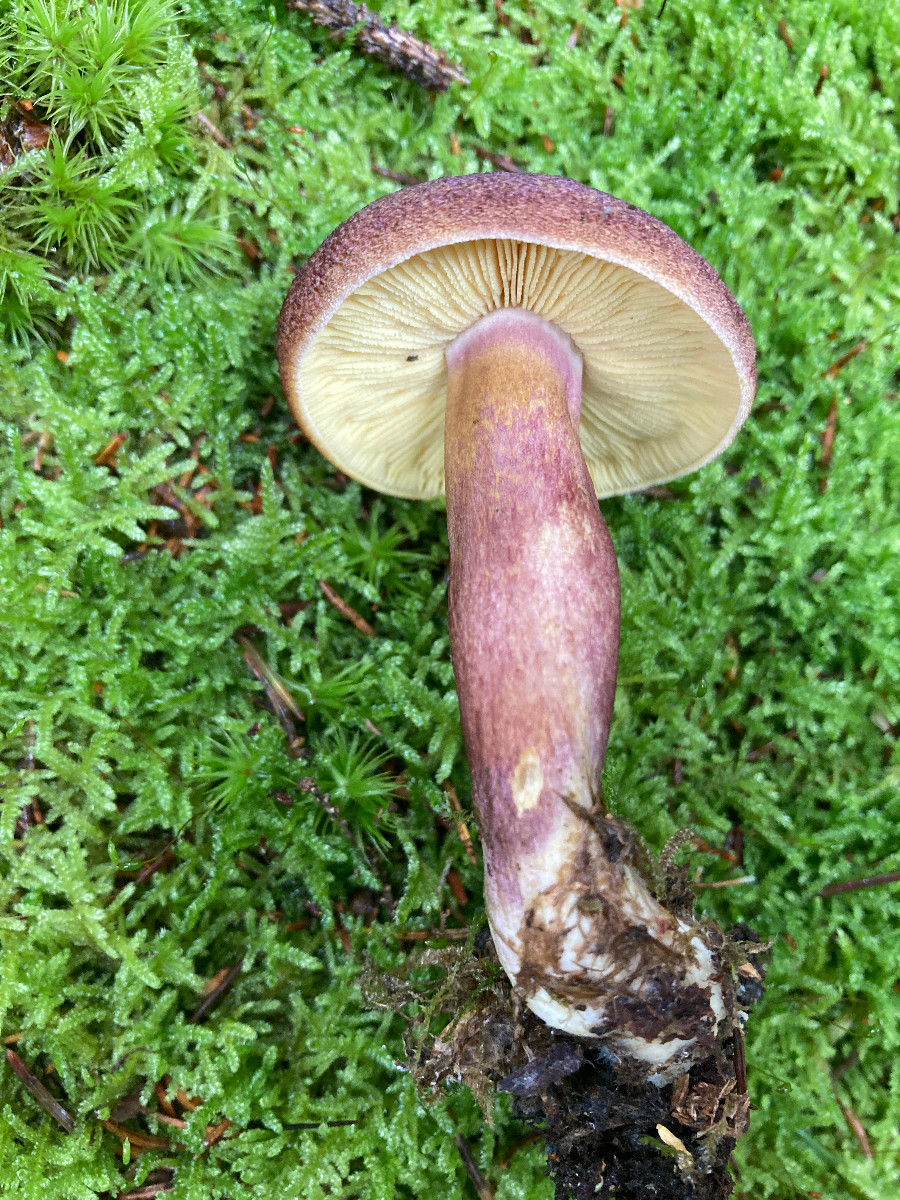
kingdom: Fungi
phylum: Basidiomycota
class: Agaricomycetes
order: Agaricales
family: Tricholomataceae
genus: Tricholomopsis
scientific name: Tricholomopsis rutilans
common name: purpur-væbnerhat
